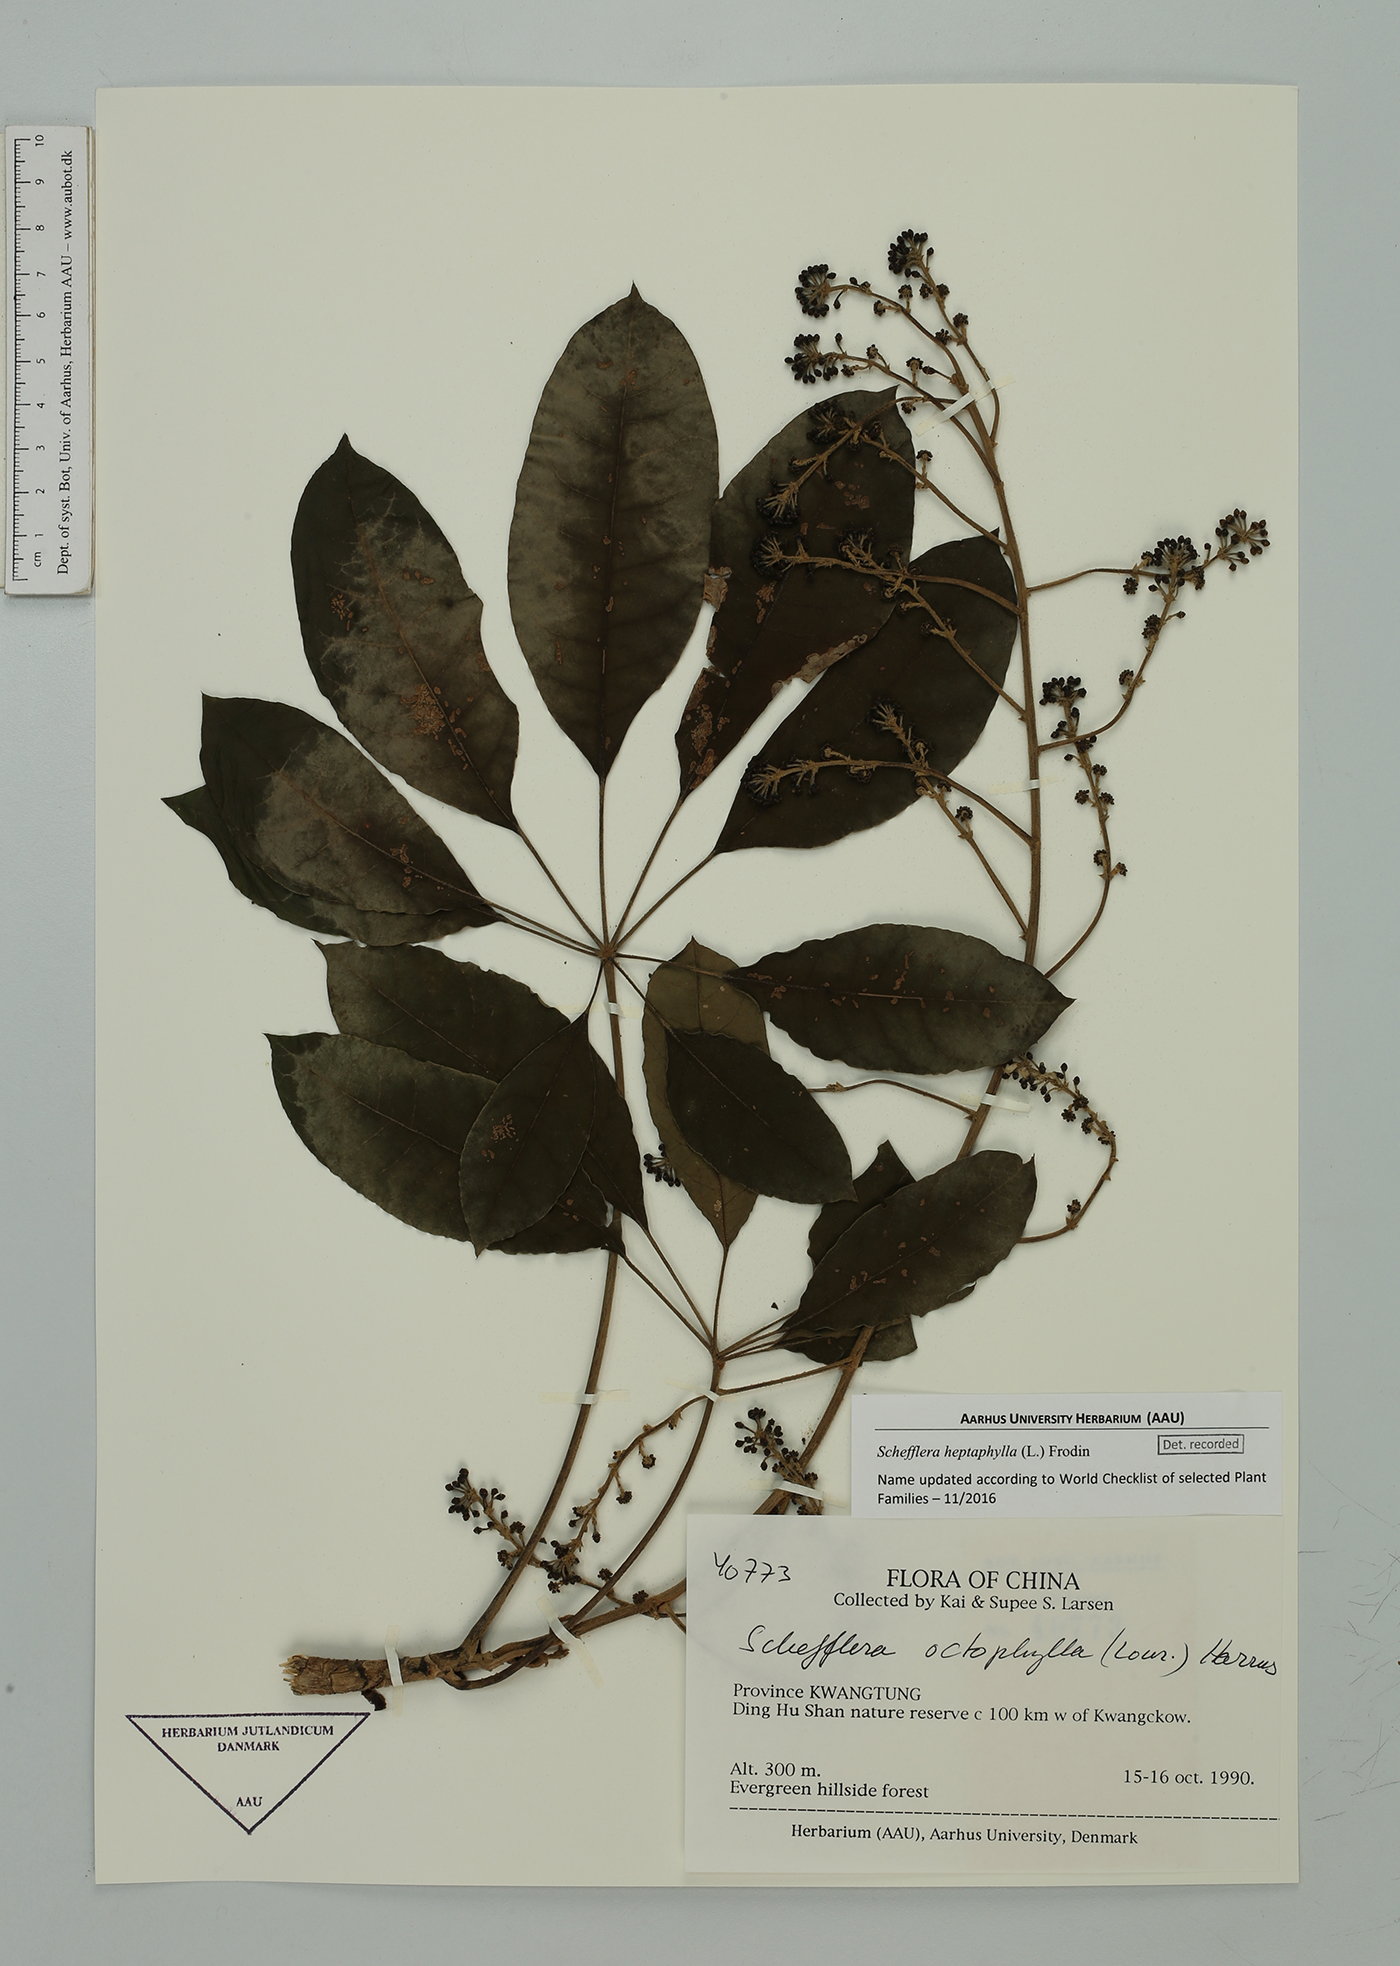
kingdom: Plantae
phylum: Tracheophyta
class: Magnoliopsida
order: Apiales
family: Araliaceae
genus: Heptapleurum
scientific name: Heptapleurum heptaphyllum
